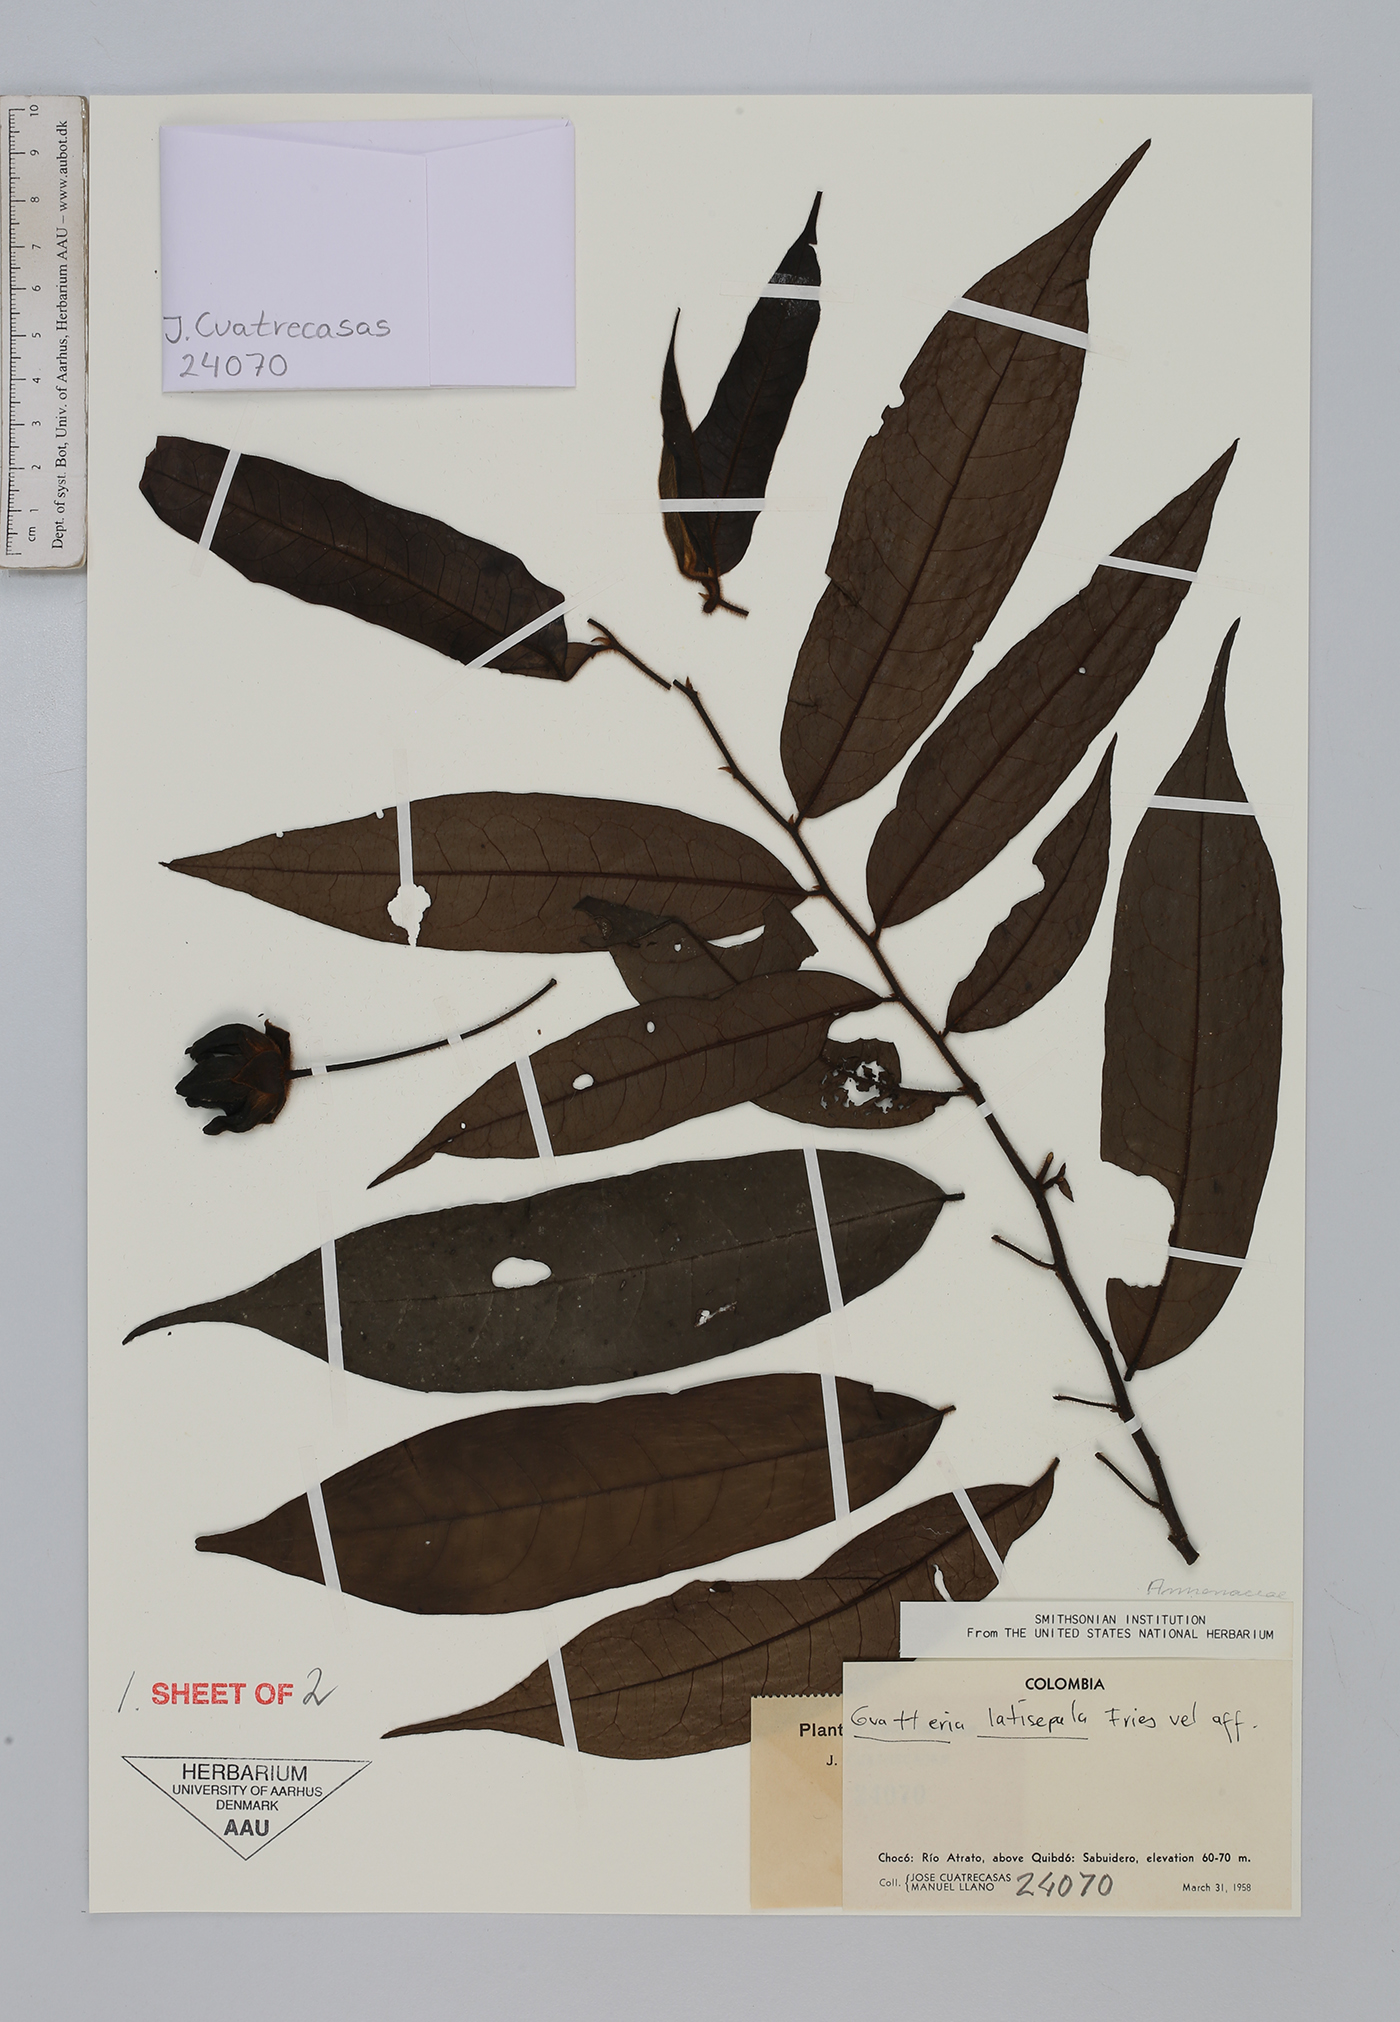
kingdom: Plantae
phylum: Tracheophyta
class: Magnoliopsida
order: Magnoliales
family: Annonaceae
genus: Guatteria
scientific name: Guatteria hirsuta
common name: Laurel
